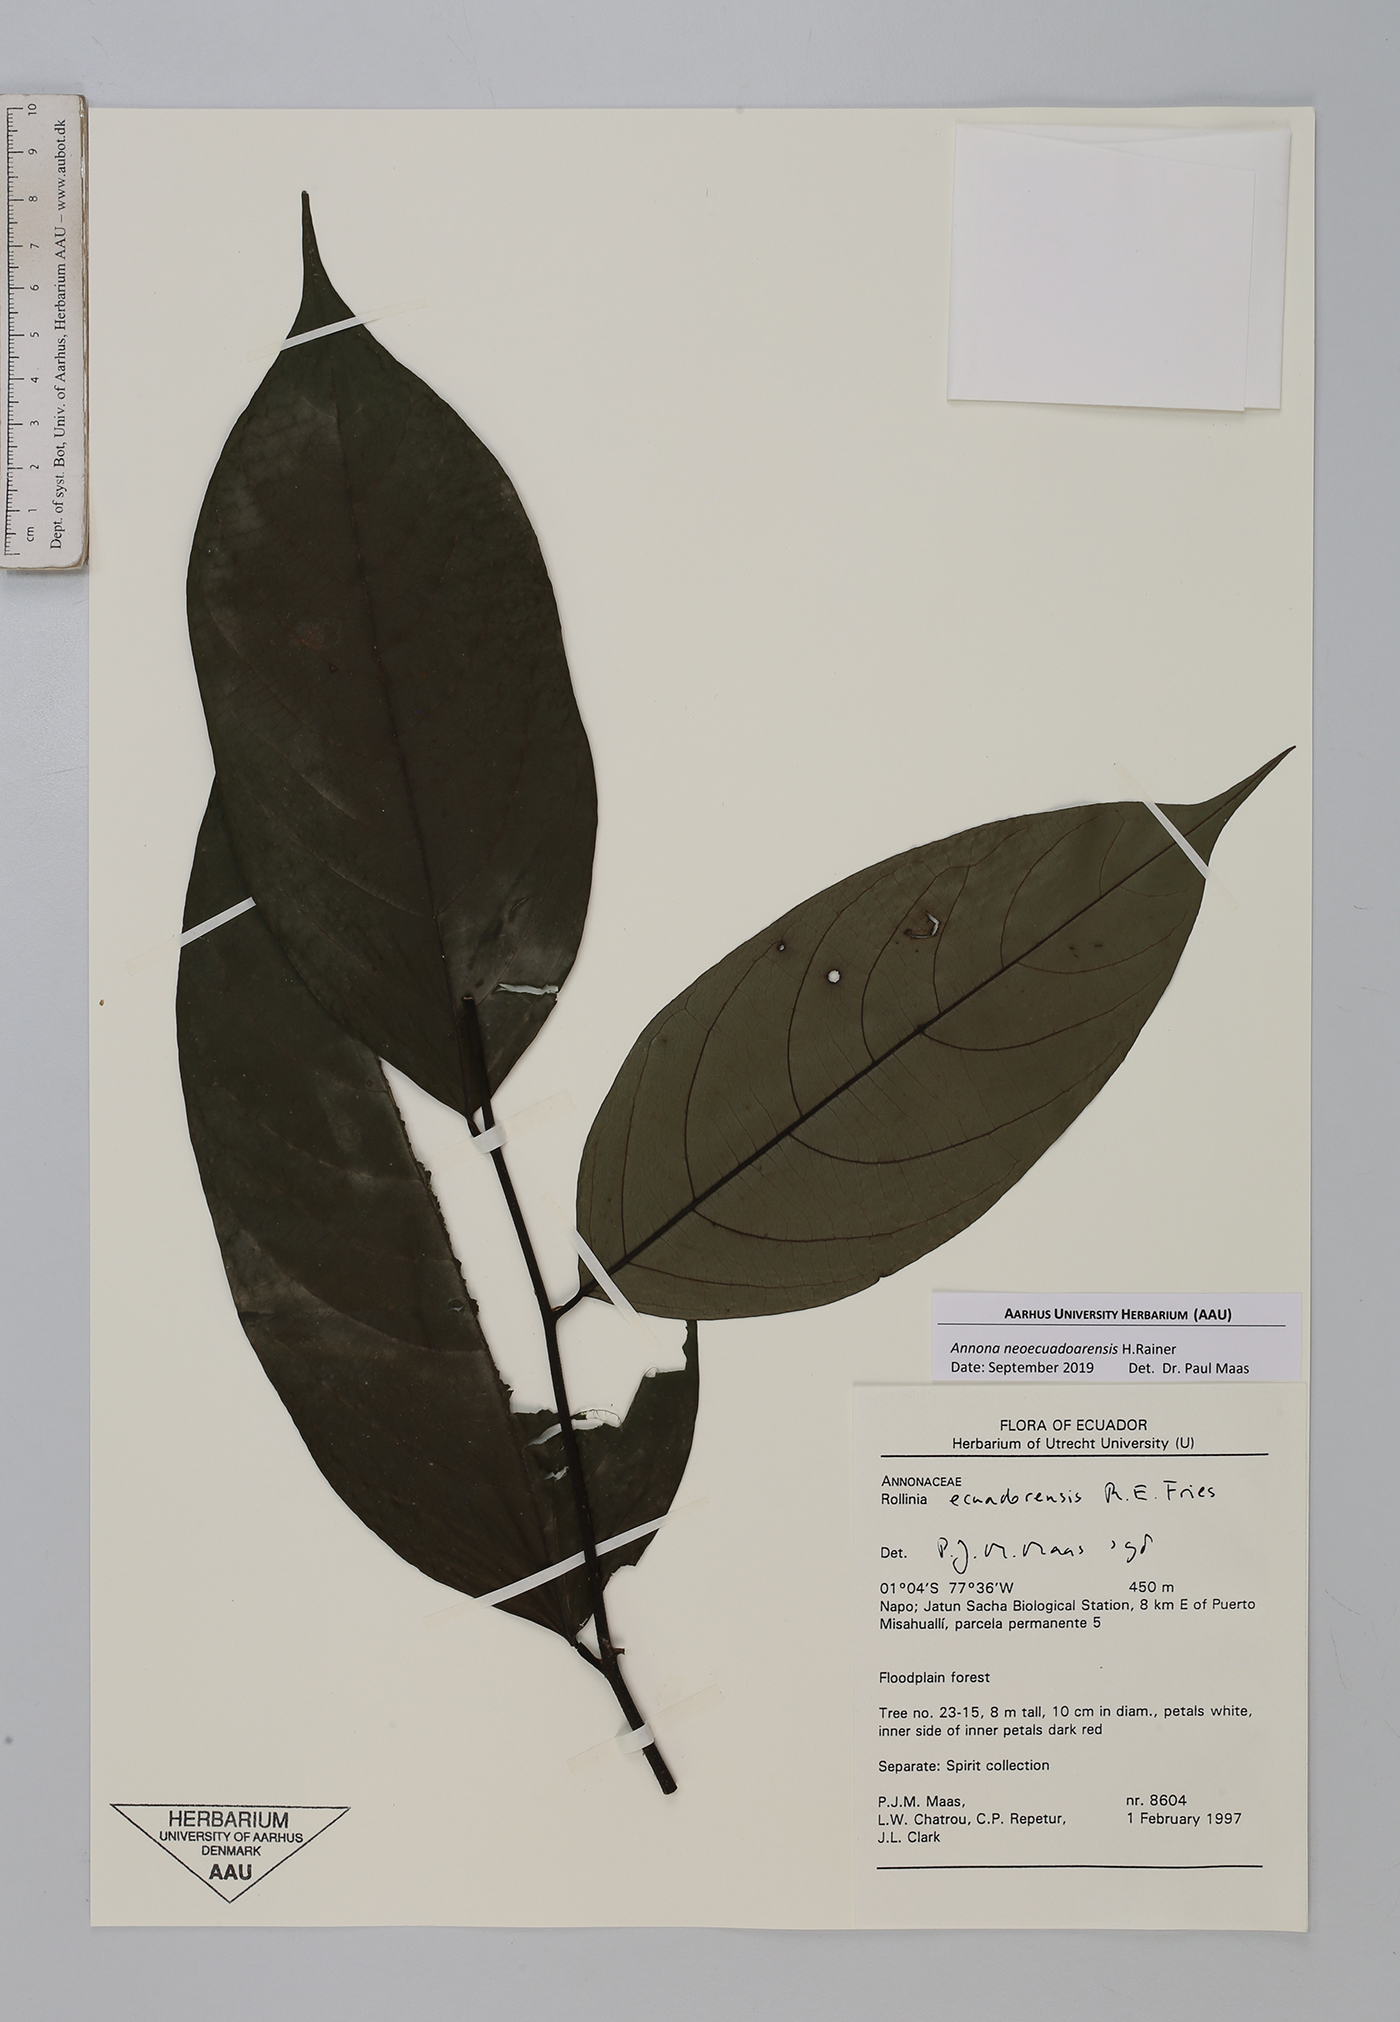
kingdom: Plantae
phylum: Tracheophyta
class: Magnoliopsida
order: Magnoliales
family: Annonaceae
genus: Annona
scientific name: Annona neoecuadoarensis
